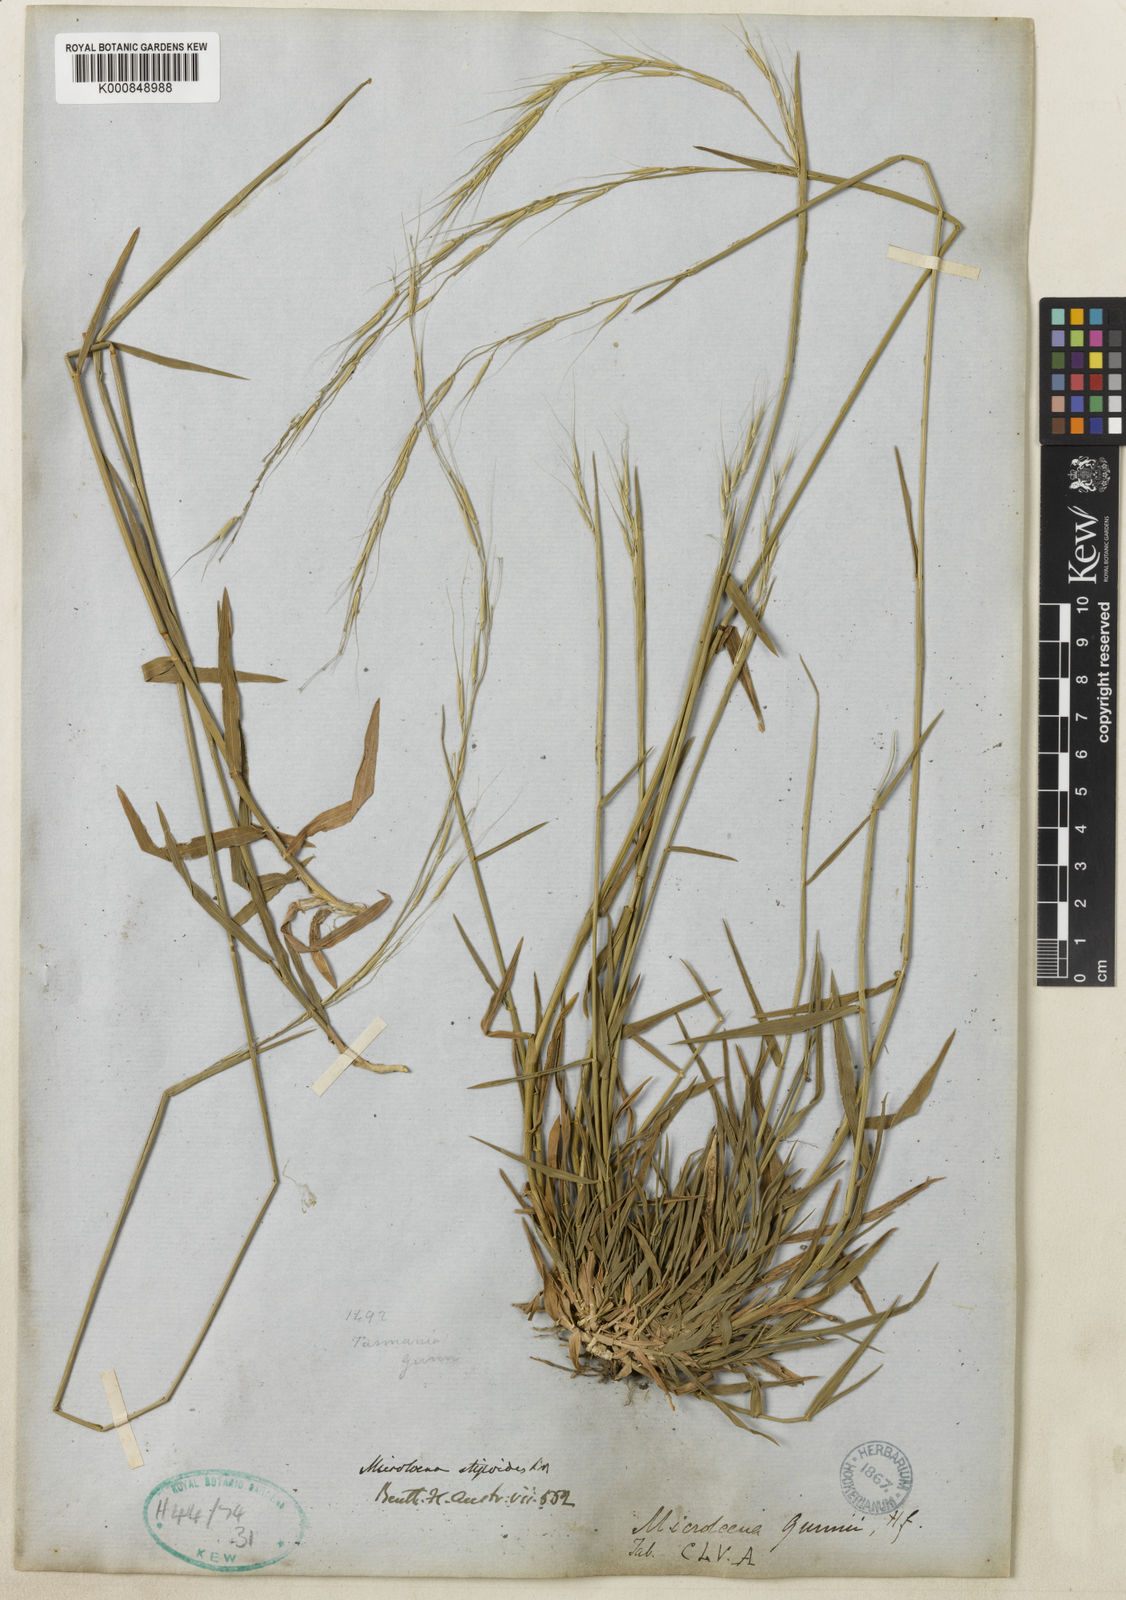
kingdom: Plantae
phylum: Tracheophyta
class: Liliopsida
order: Poales
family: Poaceae
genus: Microlaena
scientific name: Microlaena stipoides
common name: Meadow ricegrass
